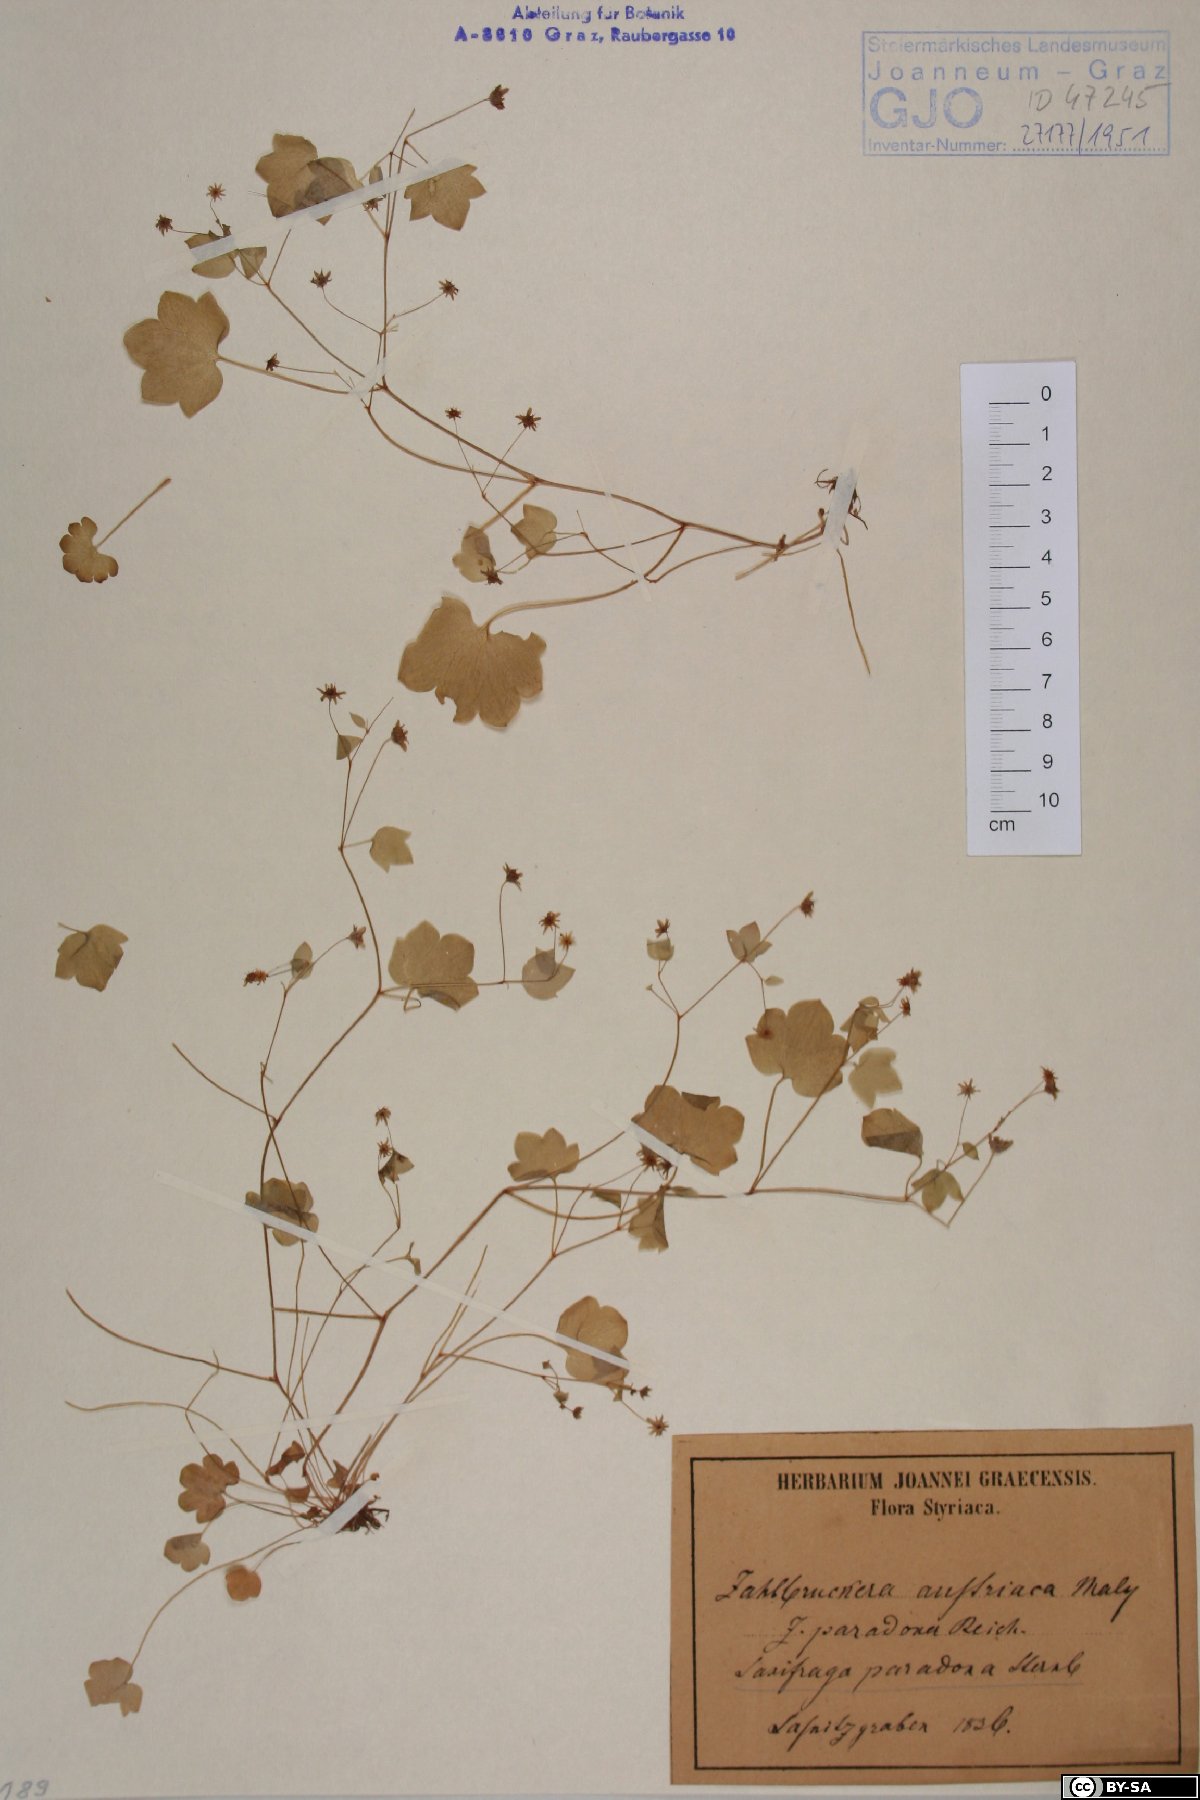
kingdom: Plantae
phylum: Tracheophyta
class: Magnoliopsida
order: Saxifragales
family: Saxifragaceae
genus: Saxifraga
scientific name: Saxifraga paradoxa
